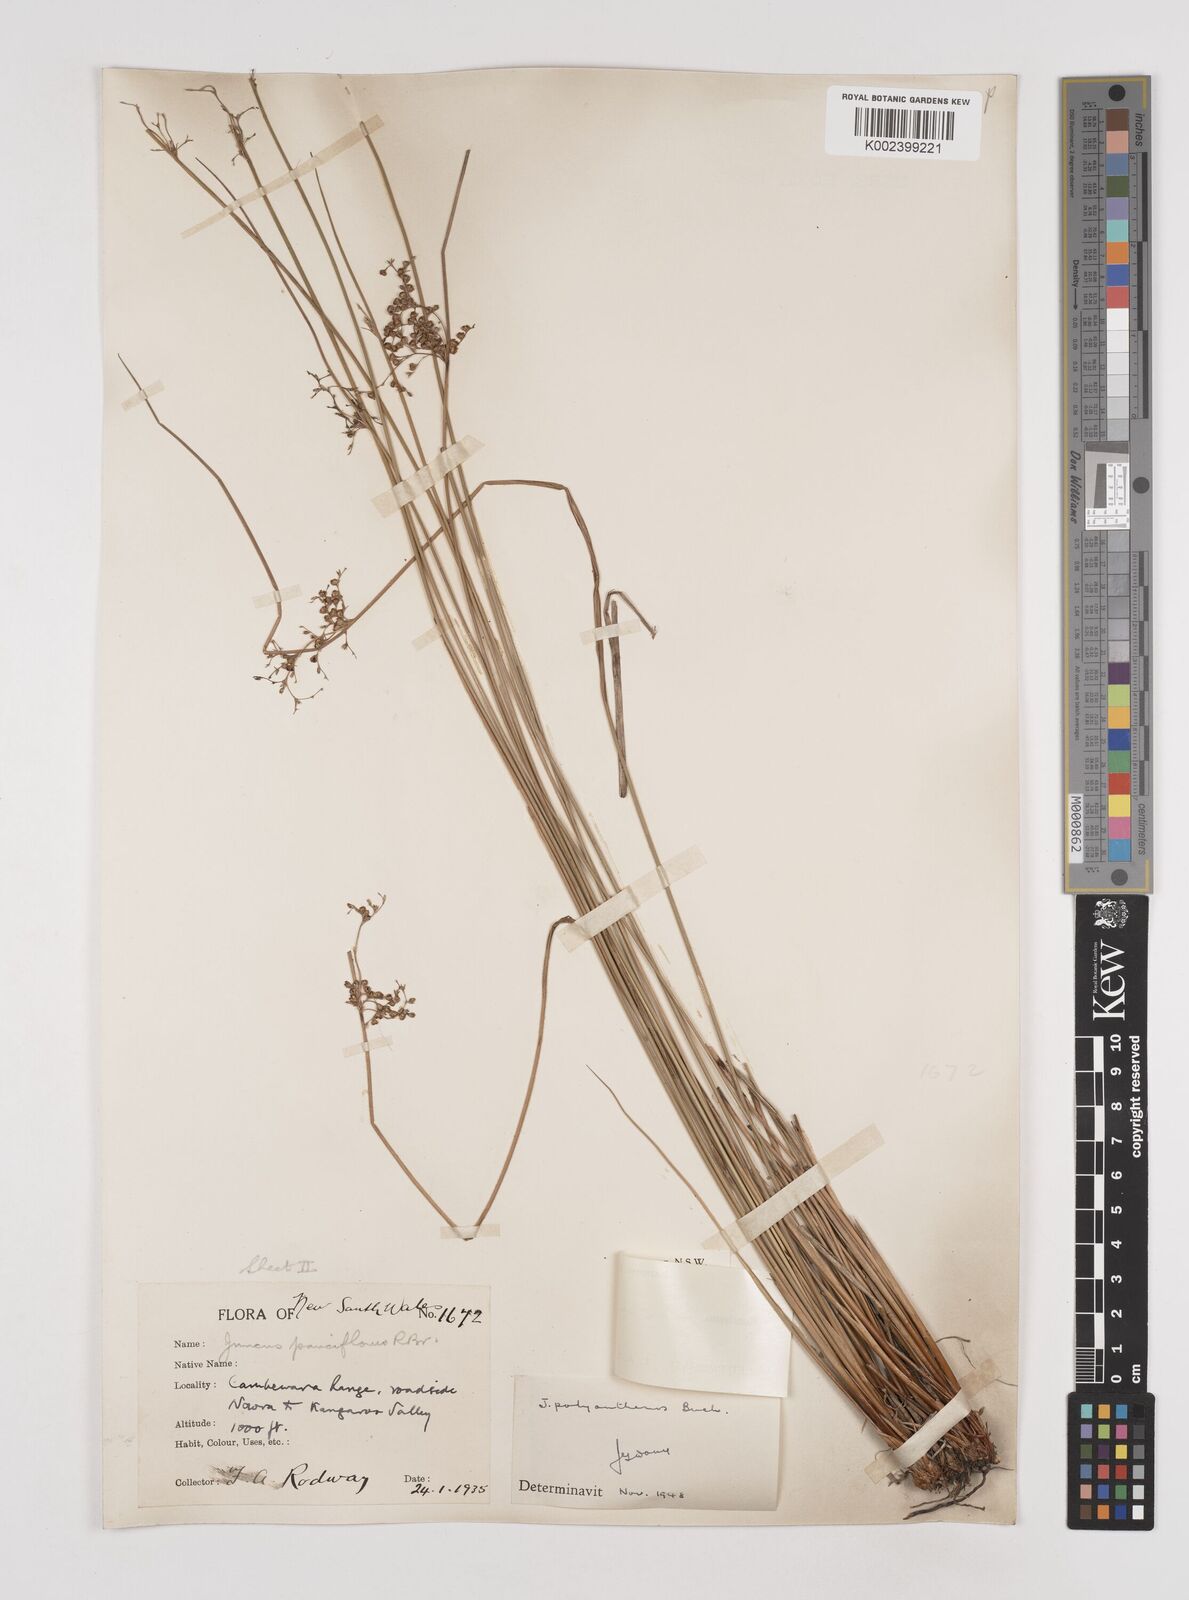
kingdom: Plantae
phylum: Tracheophyta
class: Liliopsida
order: Poales
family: Juncaceae
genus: Juncus
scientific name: Juncus usitatus
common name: Rush
